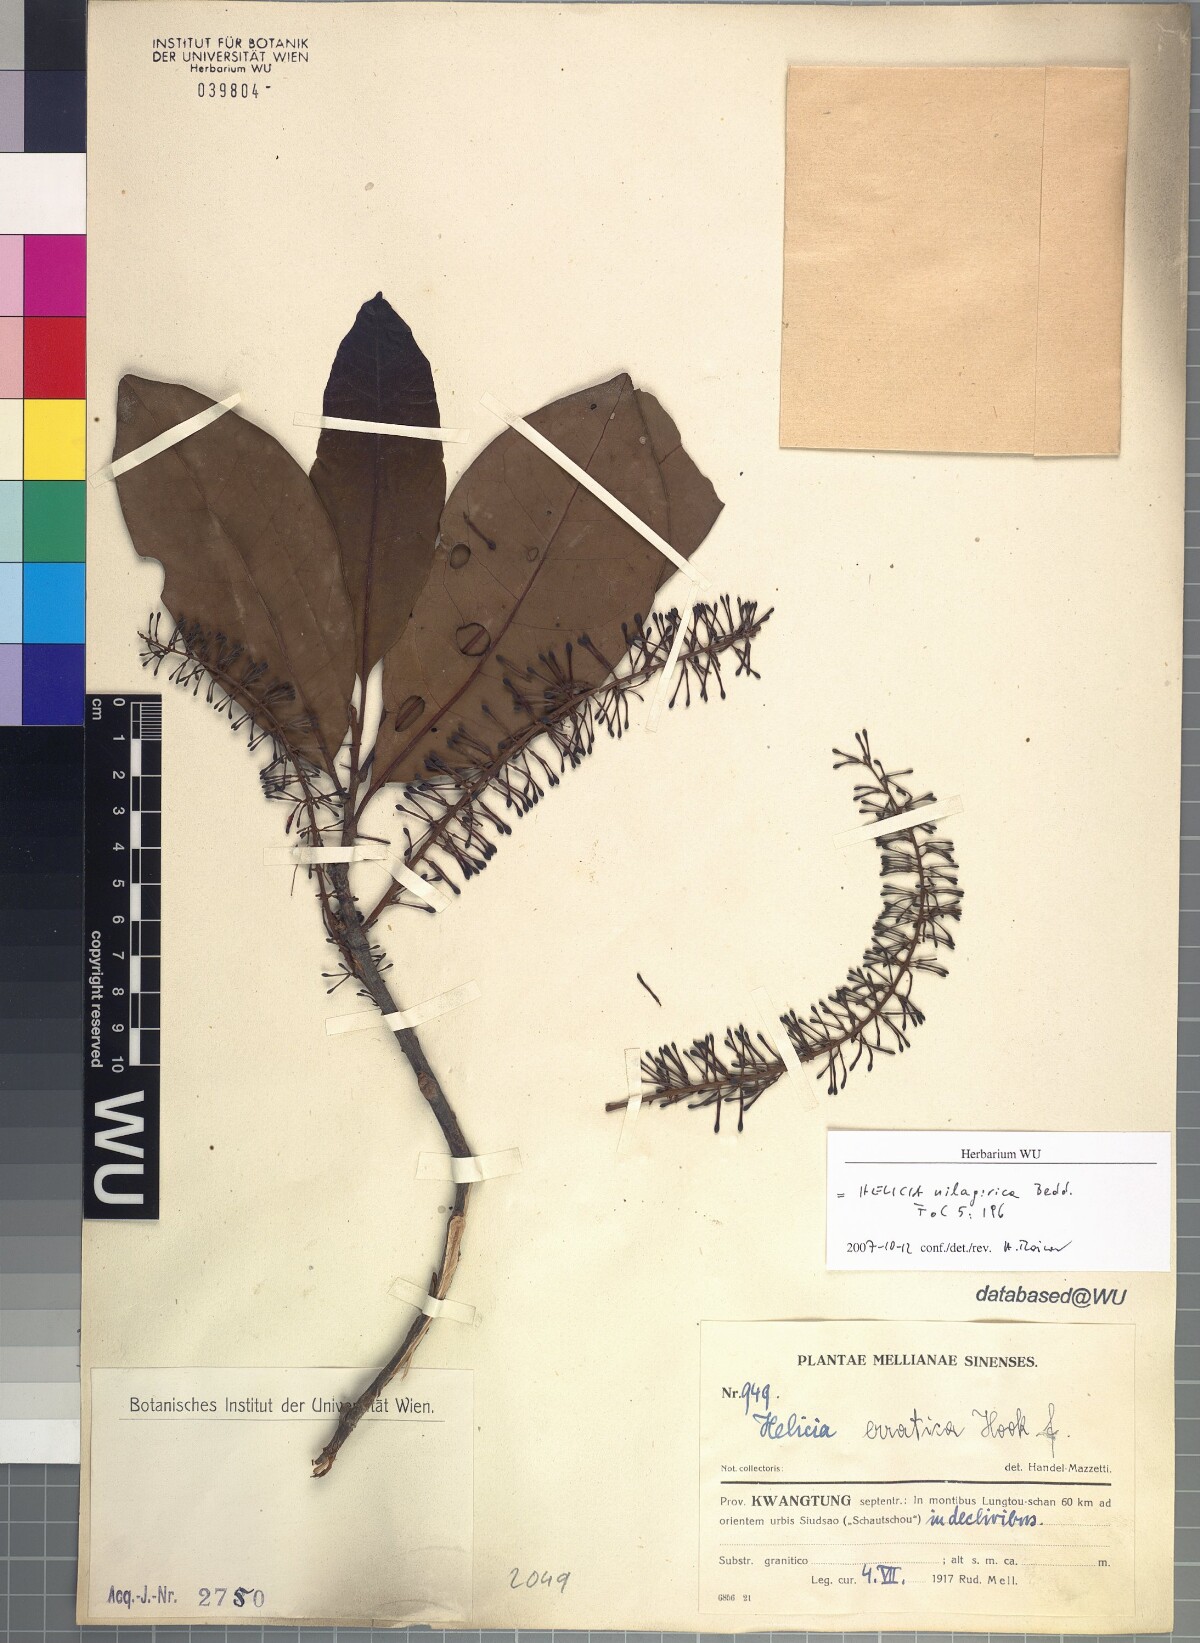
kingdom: Plantae
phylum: Tracheophyta
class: Magnoliopsida
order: Proteales
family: Proteaceae
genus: Helicia
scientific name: Helicia nilagirica
